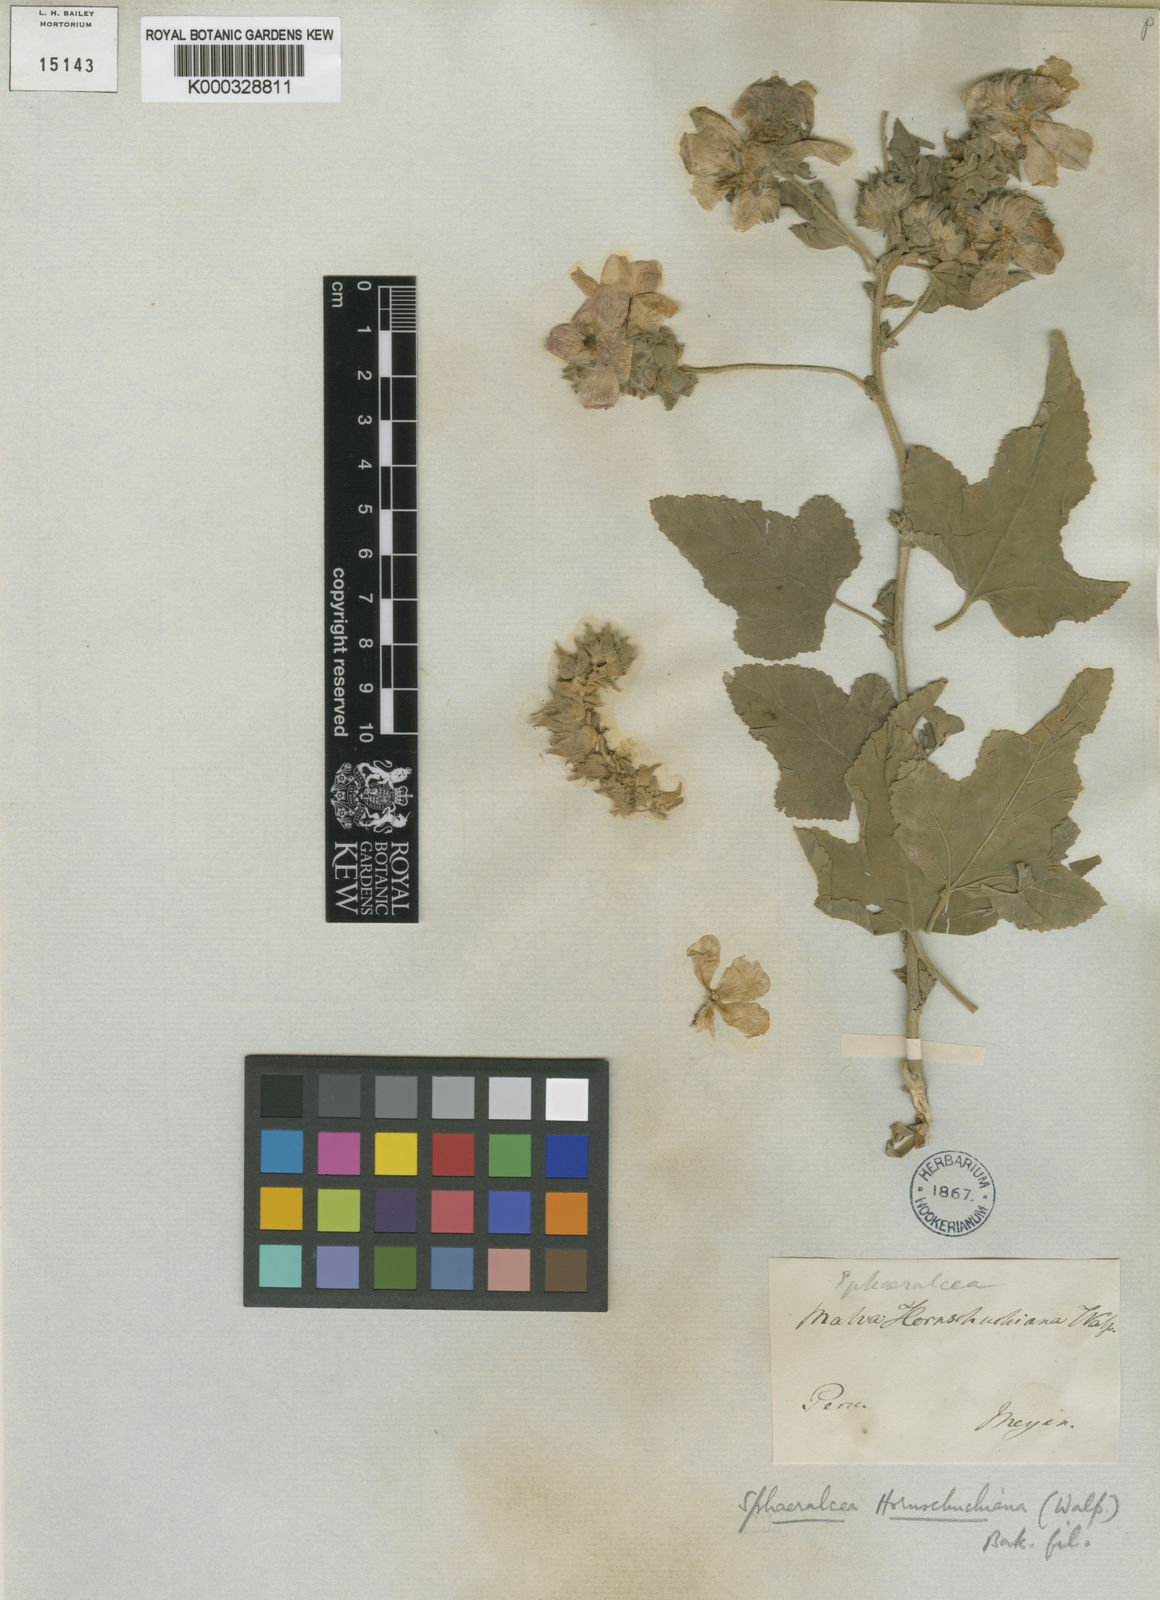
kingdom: Plantae
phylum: Tracheophyta
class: Magnoliopsida
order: Malvales
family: Malvaceae
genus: Tarasa
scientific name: Tarasa hornschuchiana
